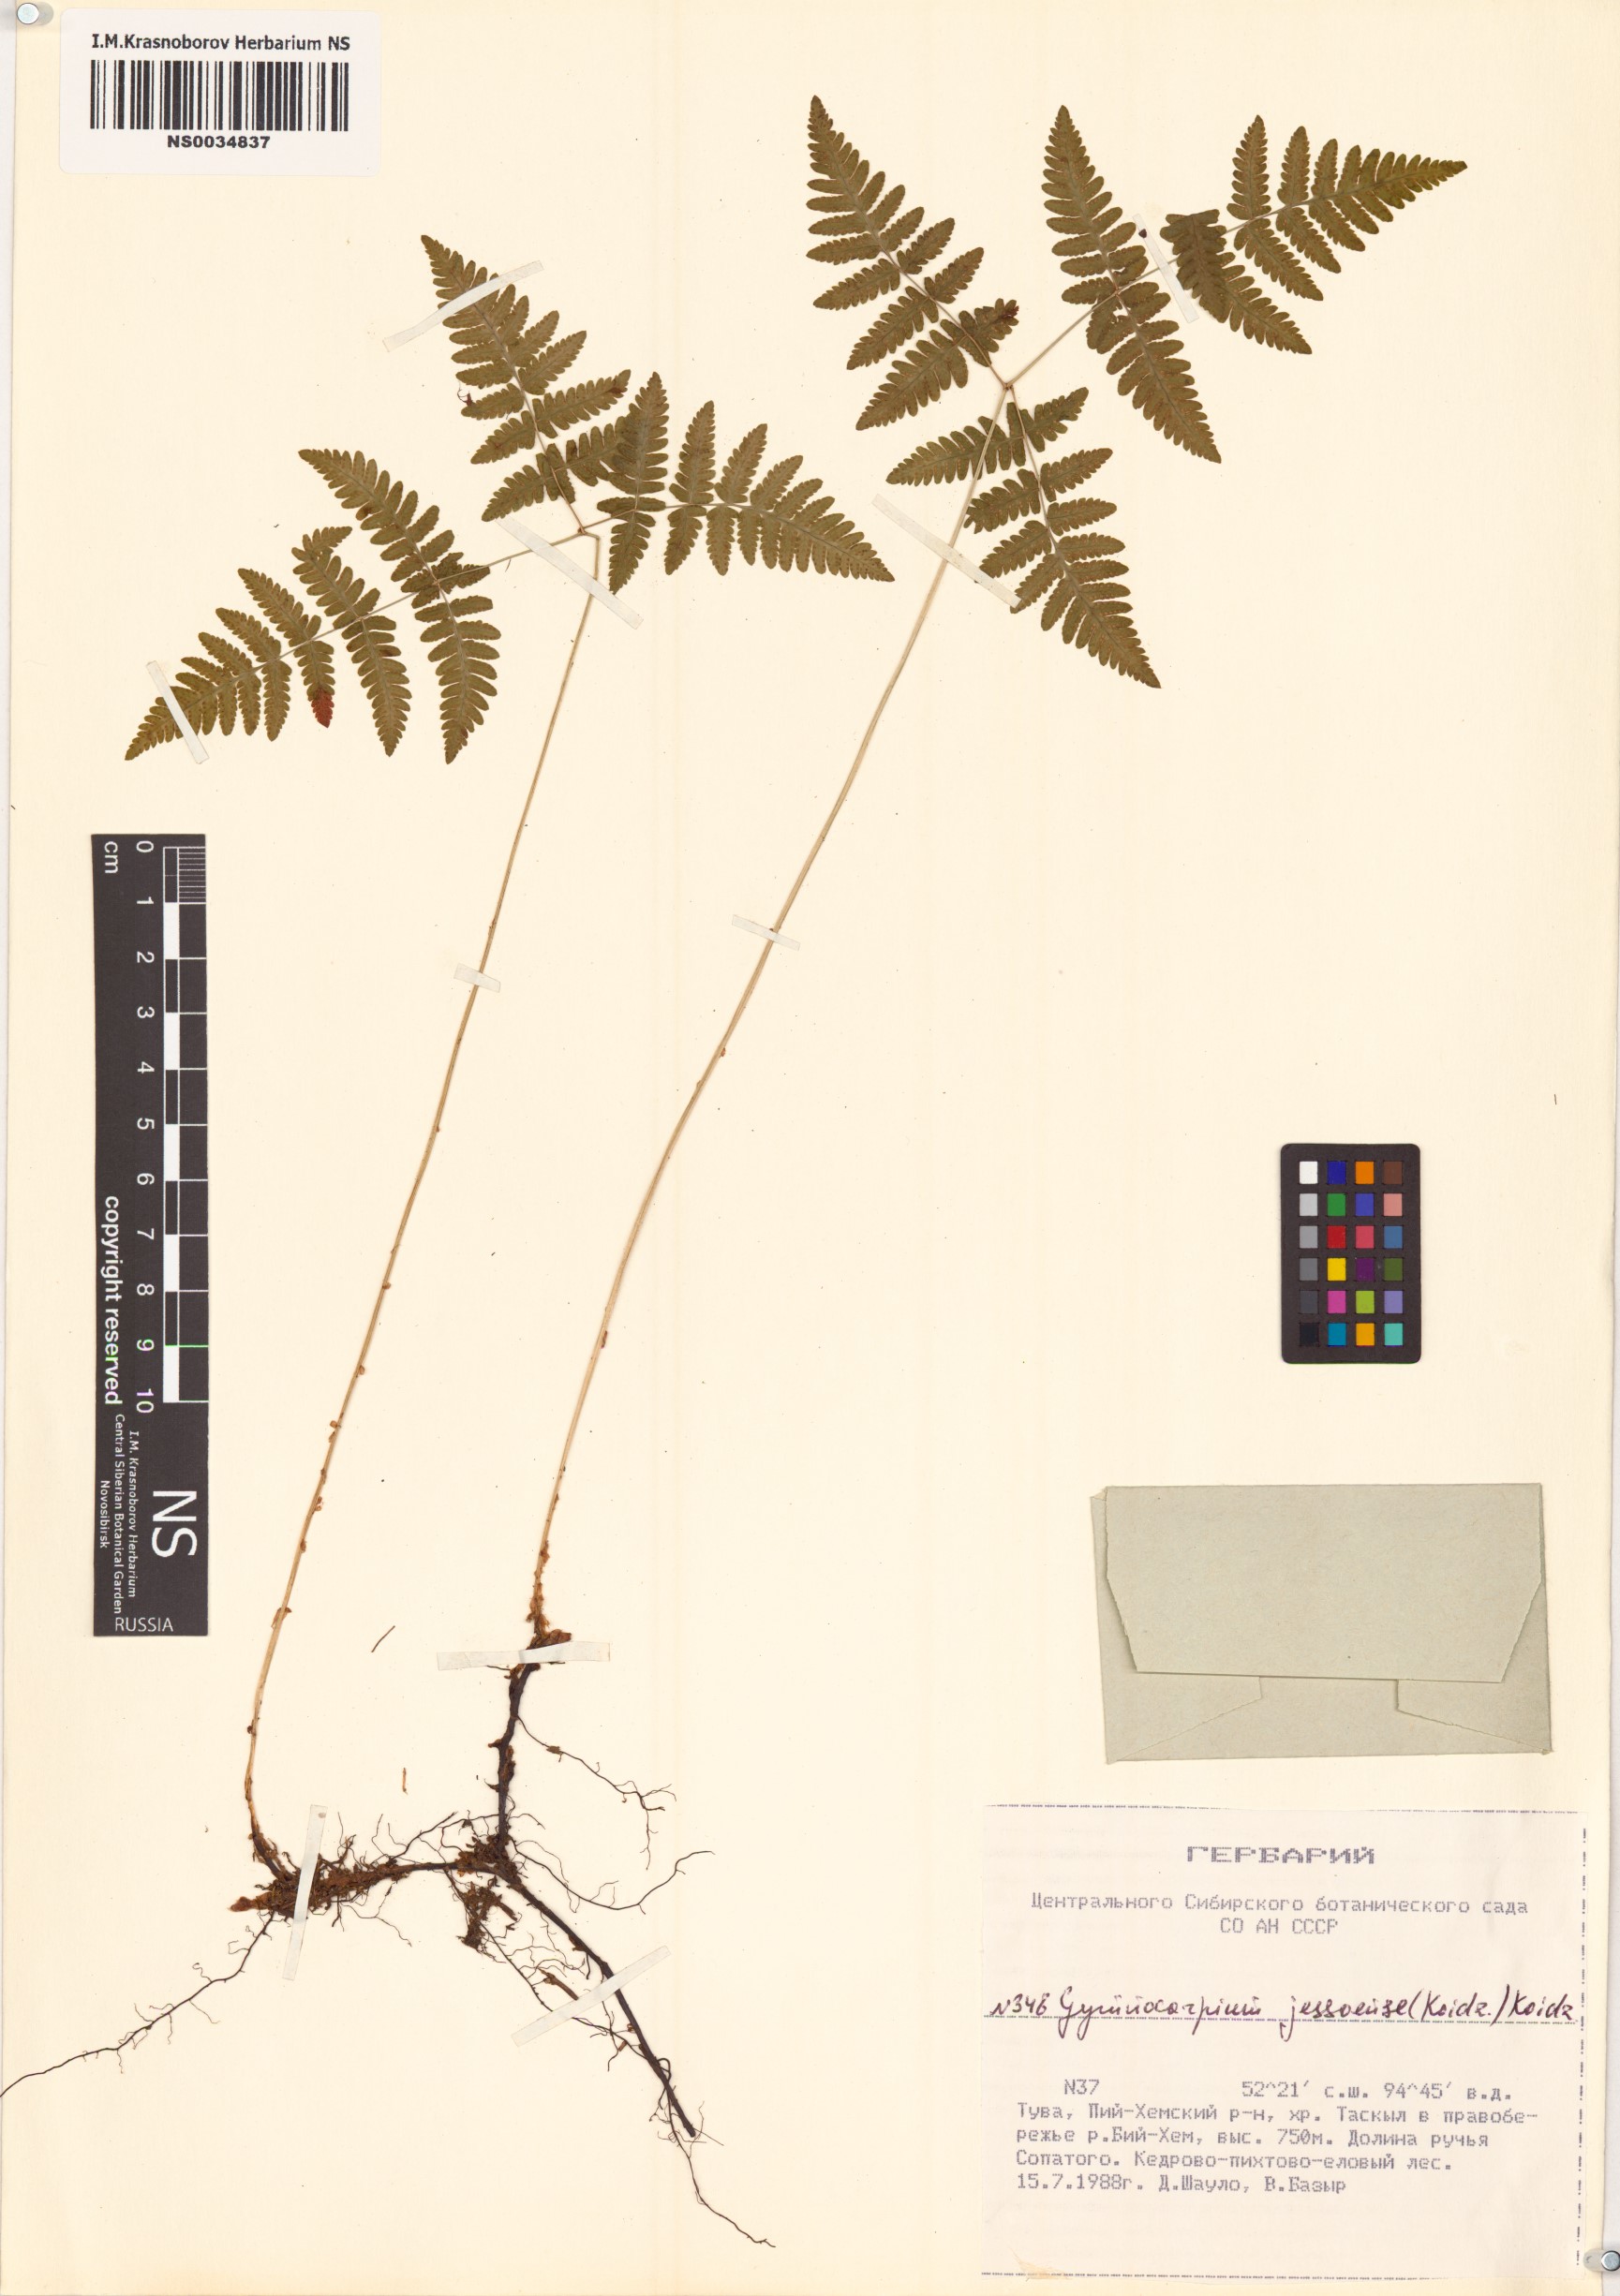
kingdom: Plantae
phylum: Tracheophyta
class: Polypodiopsida
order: Polypodiales
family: Cystopteridaceae
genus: Gymnocarpium
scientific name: Gymnocarpium jessoense
